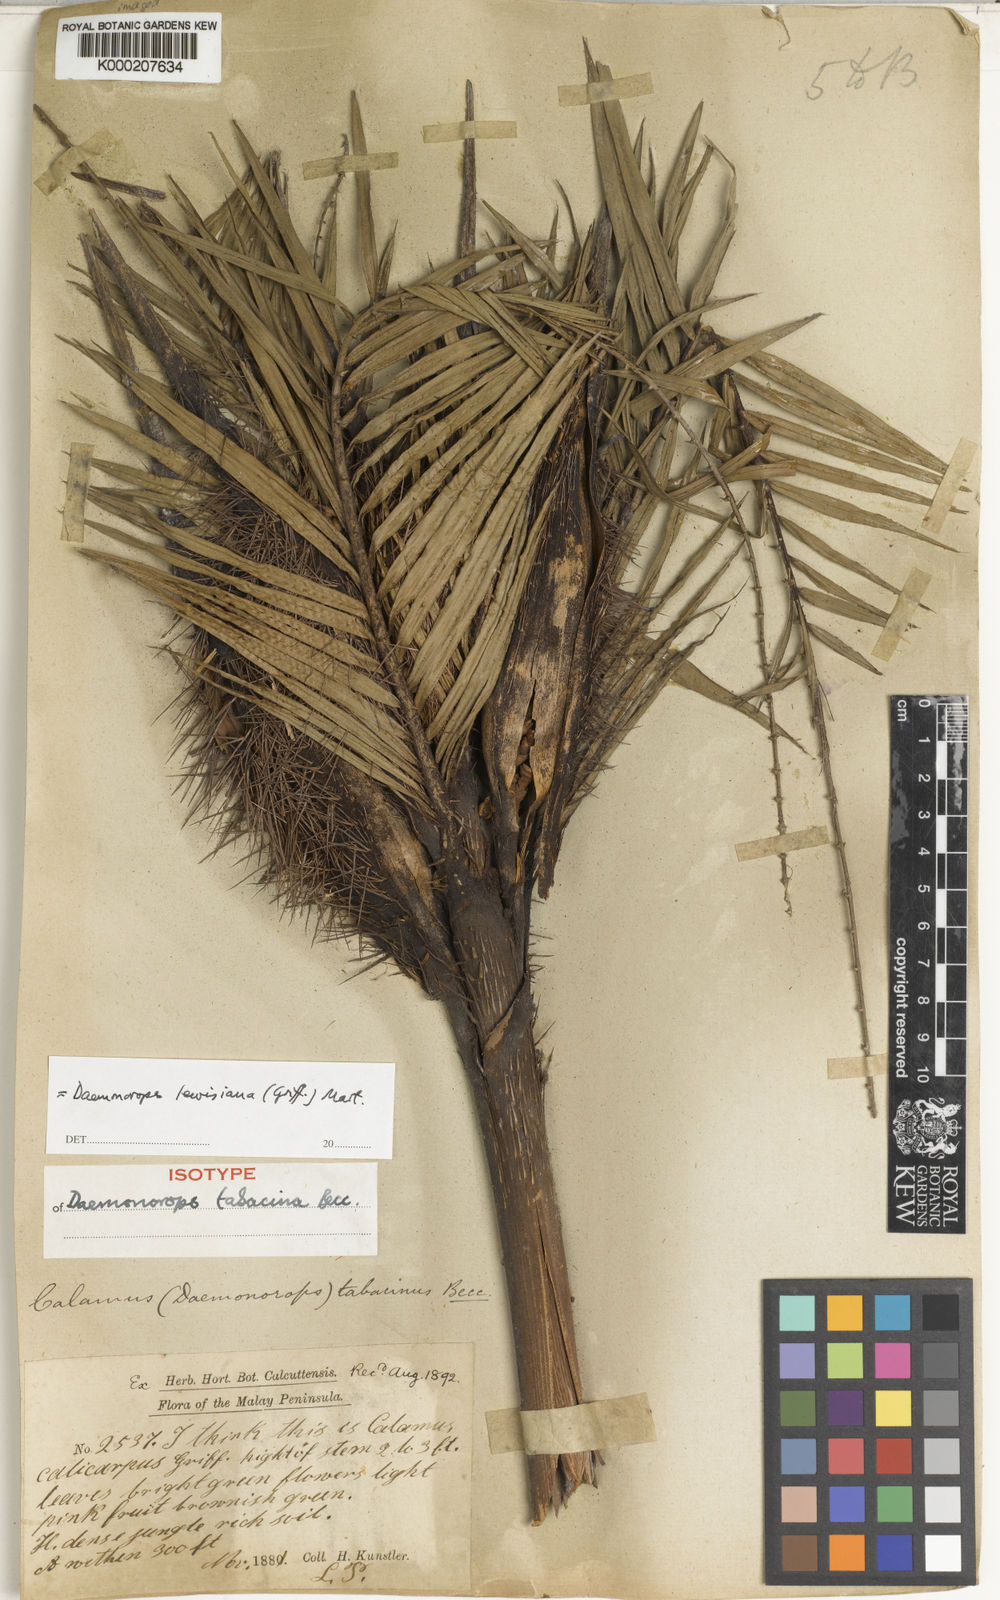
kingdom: Plantae
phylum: Tracheophyta
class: Liliopsida
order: Arecales
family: Arecaceae
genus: Calamus
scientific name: Calamus melanochaetes
